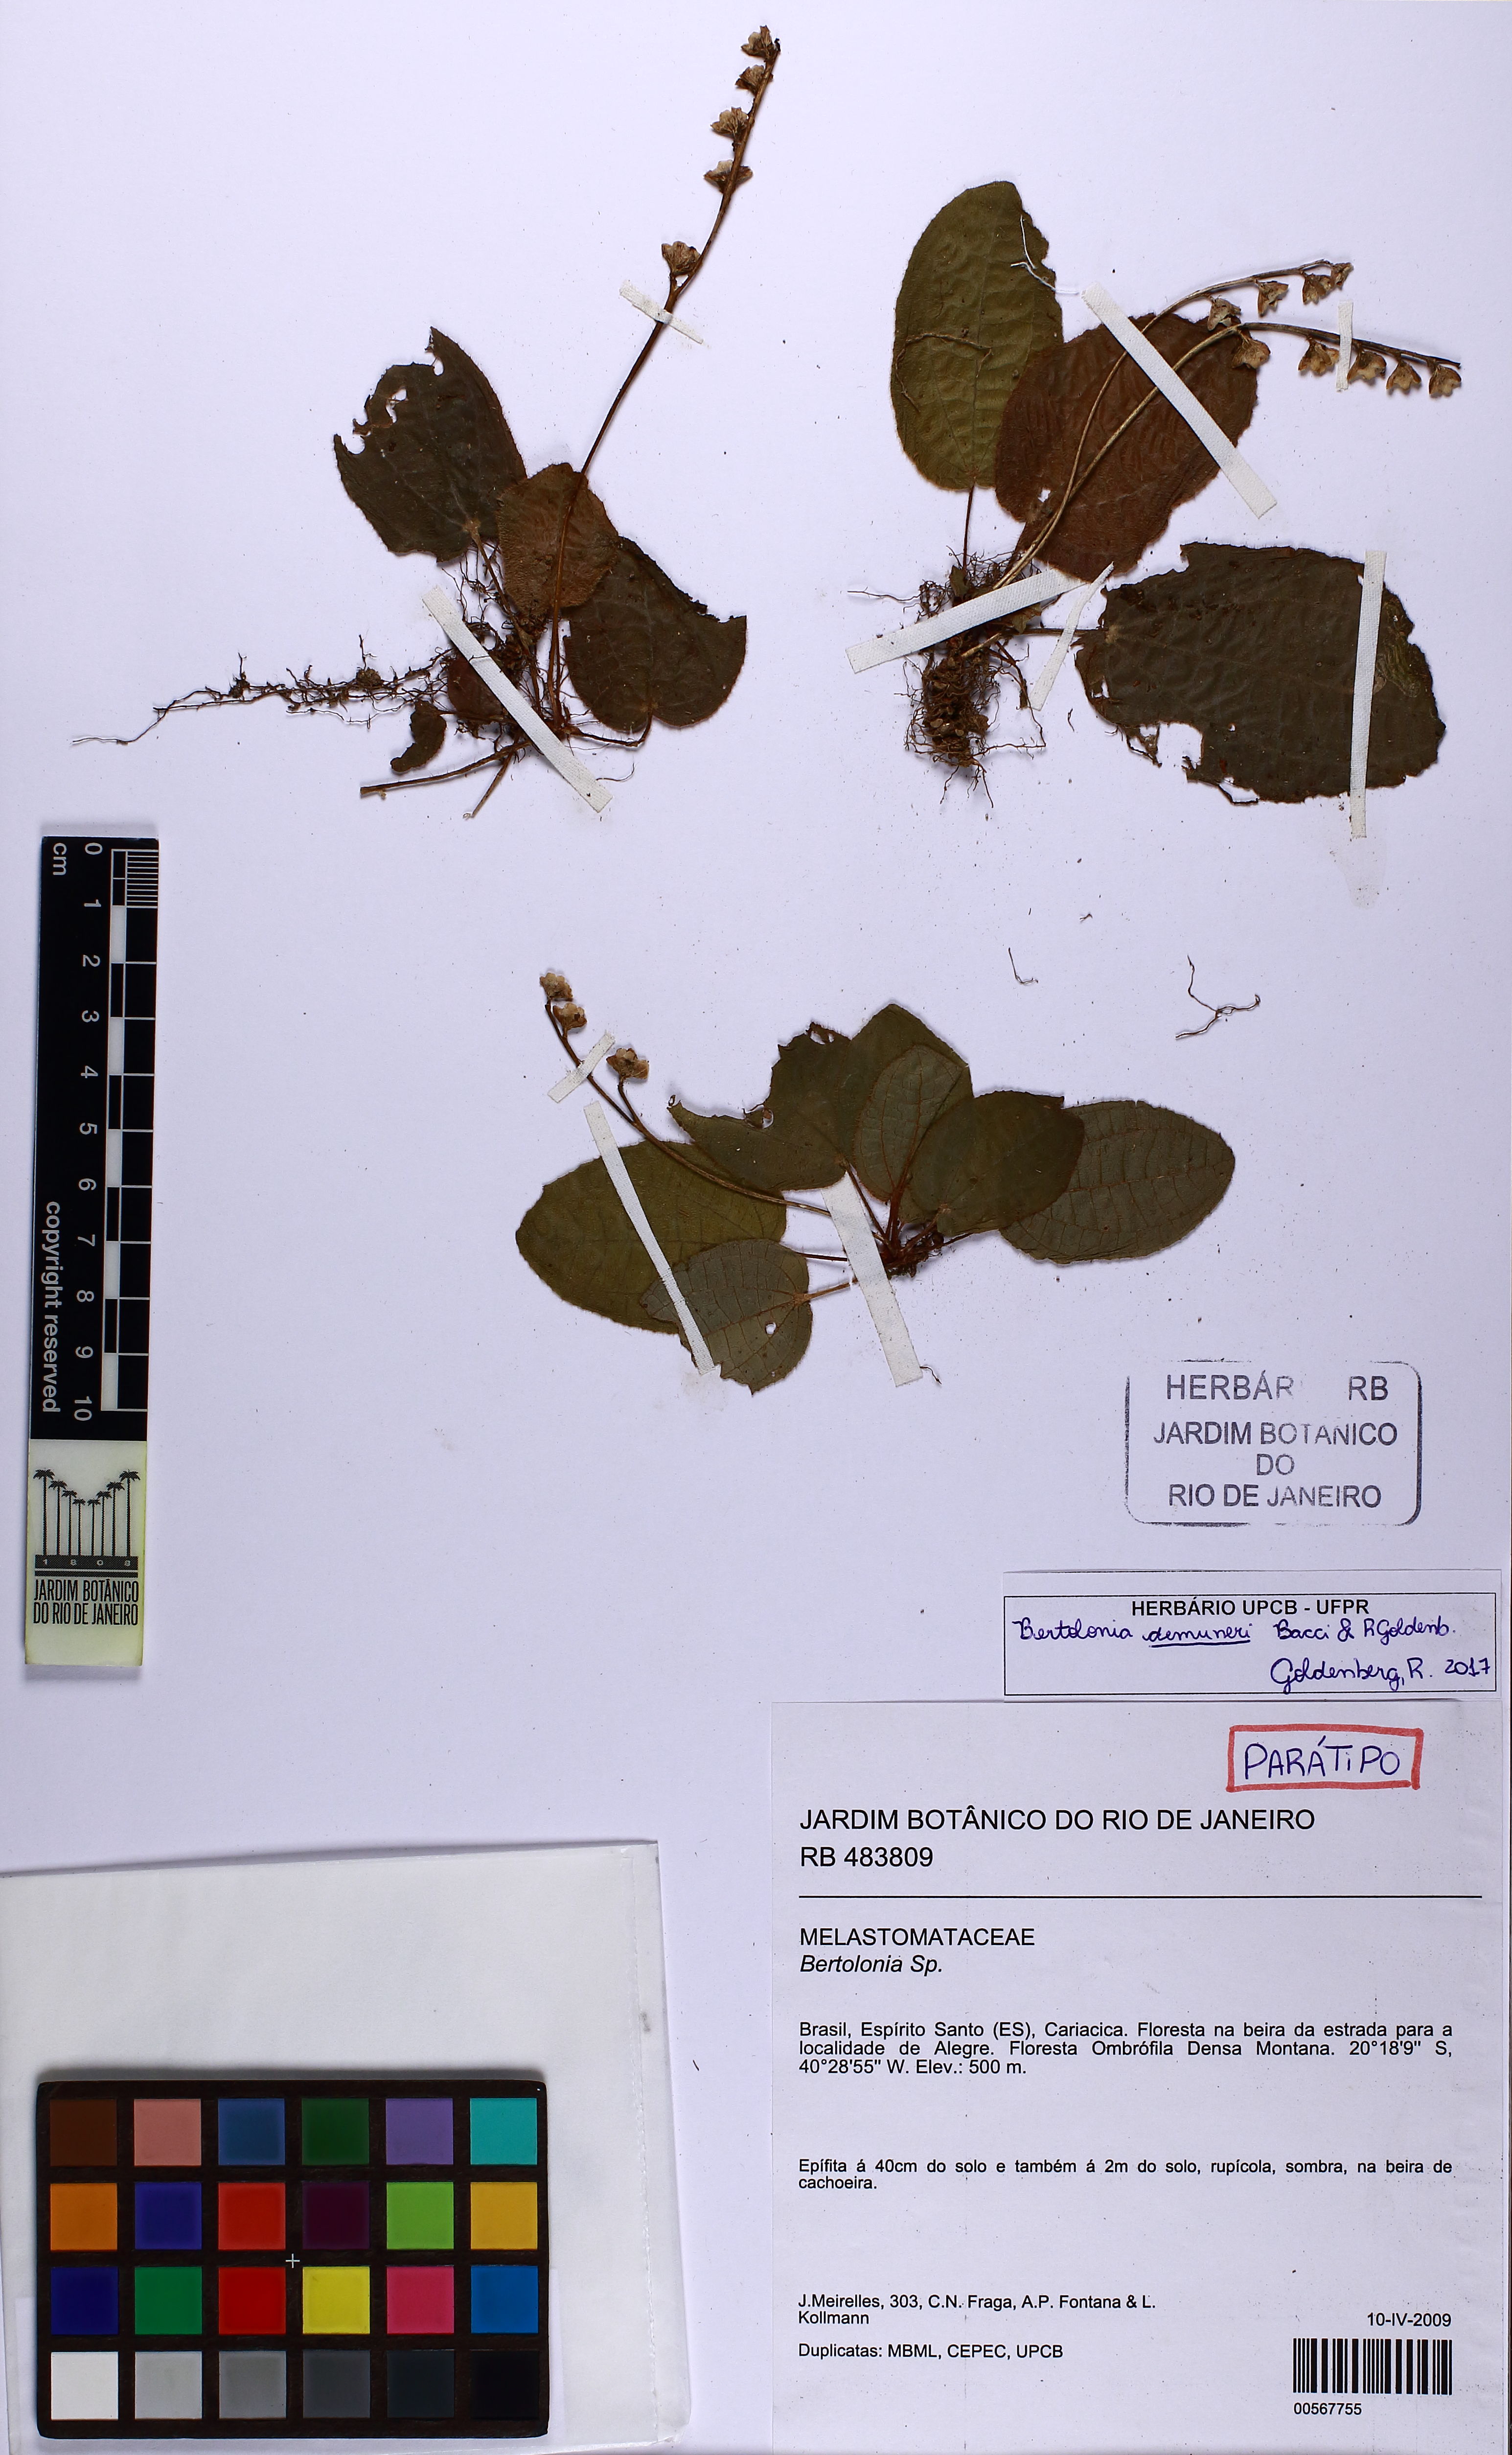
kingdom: Plantae
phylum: Tracheophyta
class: Magnoliopsida
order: Myrtales
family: Melastomataceae
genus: Bertolonia
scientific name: Bertolonia michelangeliana
